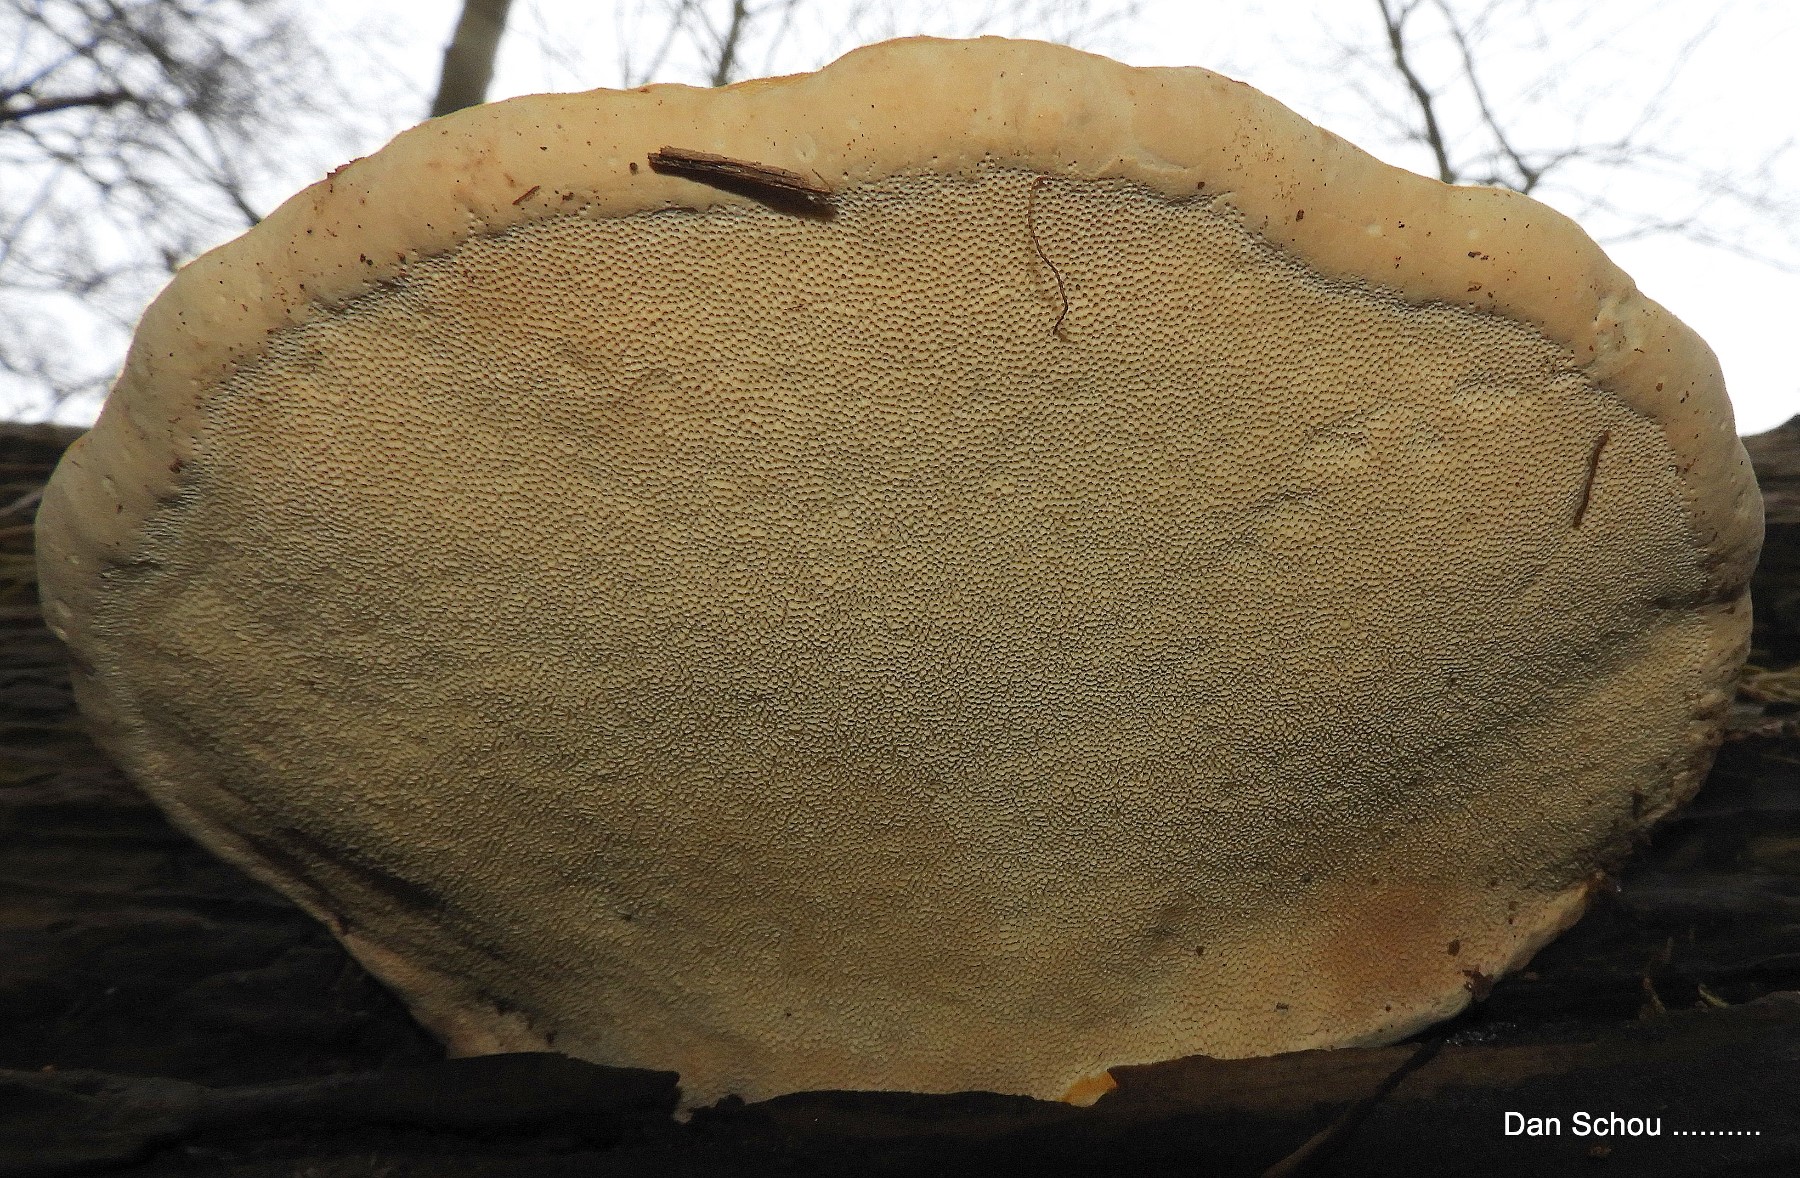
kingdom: Fungi
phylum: Basidiomycota
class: Agaricomycetes
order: Polyporales
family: Fomitopsidaceae
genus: Fomitopsis
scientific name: Fomitopsis pinicola
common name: randbæltet hovporesvamp
